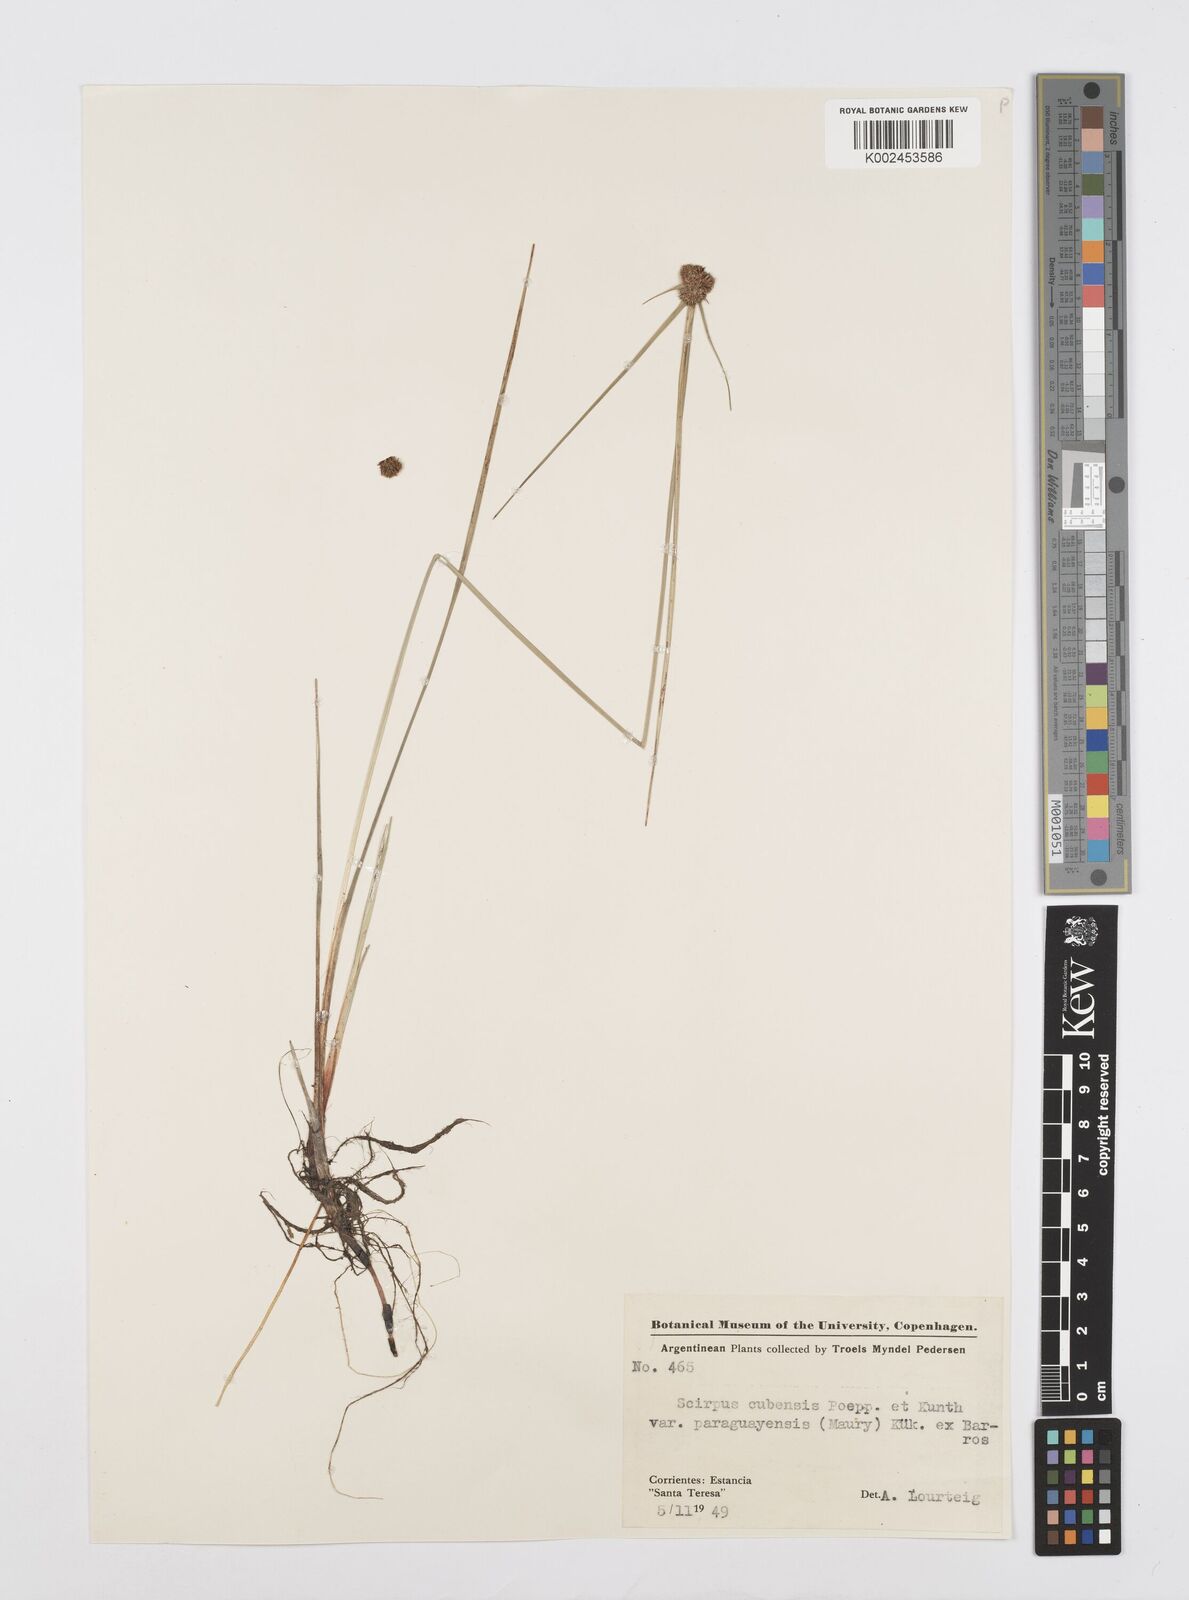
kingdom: Plantae
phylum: Tracheophyta
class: Liliopsida
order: Poales
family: Cyperaceae
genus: Cyperus
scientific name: Cyperus elegans
